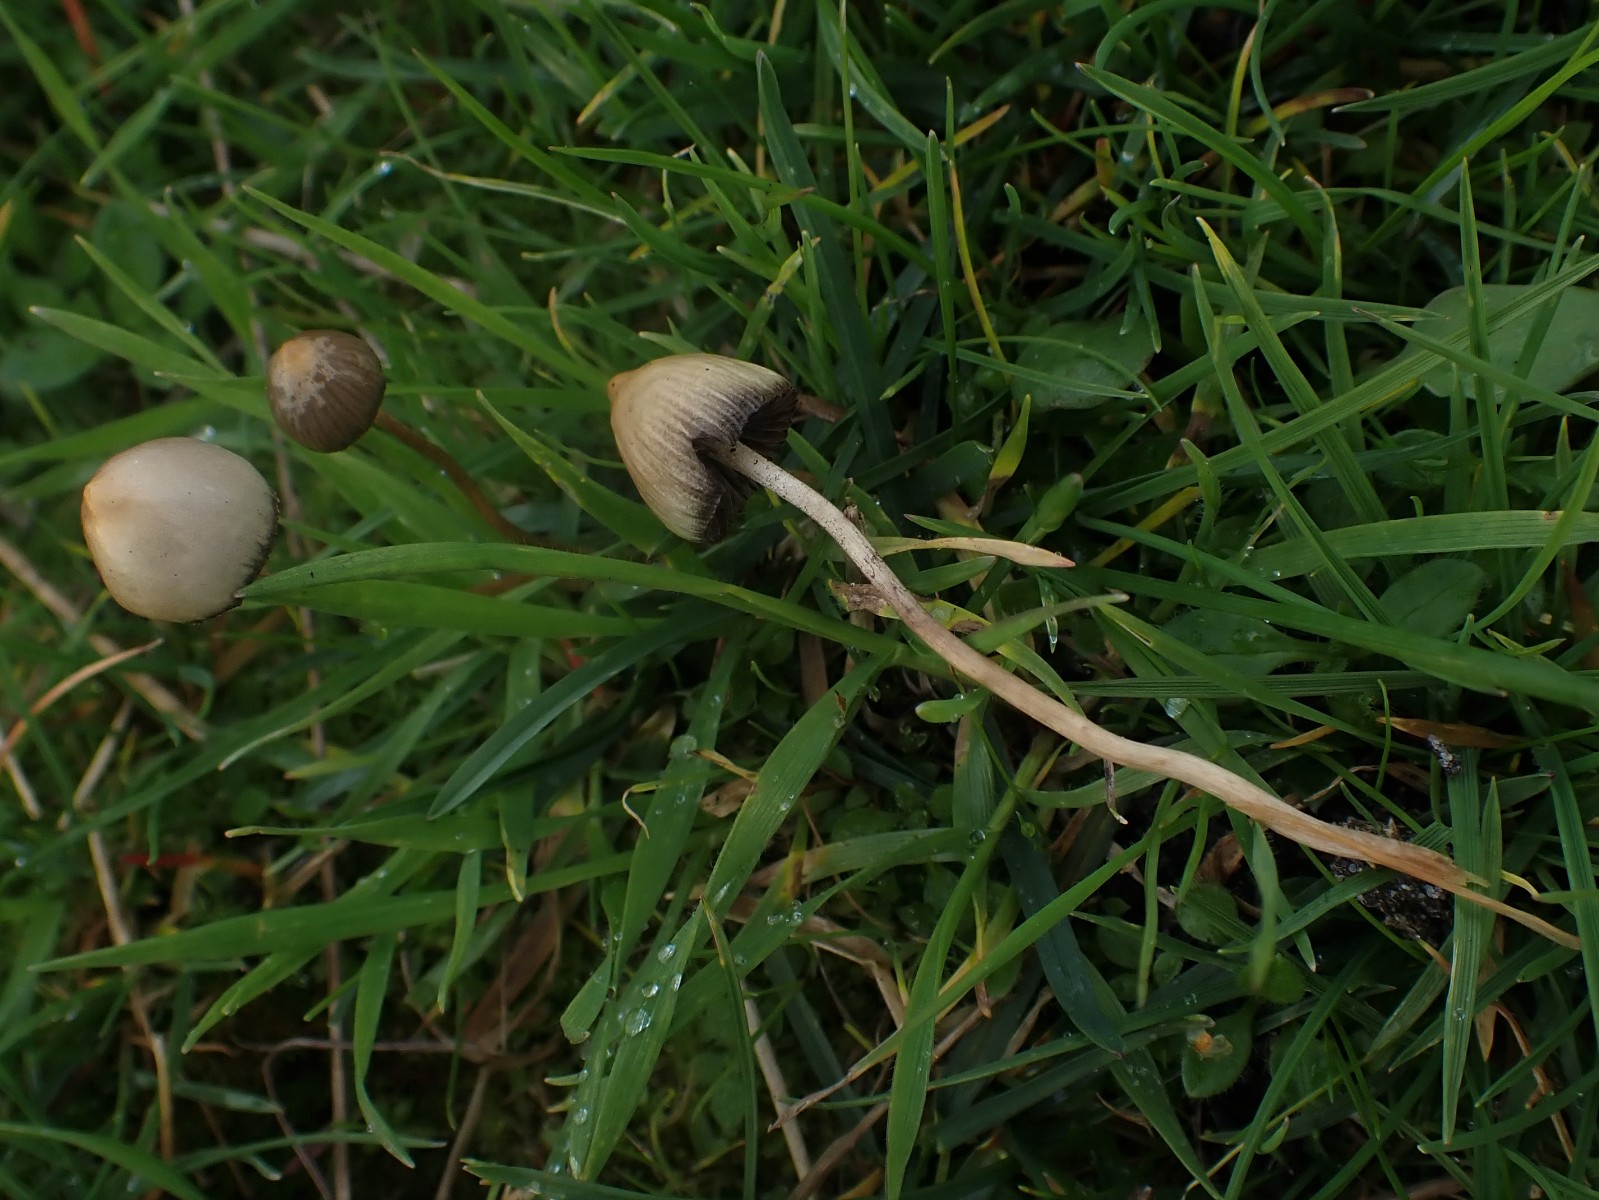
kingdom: Fungi
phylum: Basidiomycota
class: Agaricomycetes
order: Agaricales
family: Hymenogastraceae
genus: Psilocybe
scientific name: Psilocybe semilanceata
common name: spids nøgenhat
